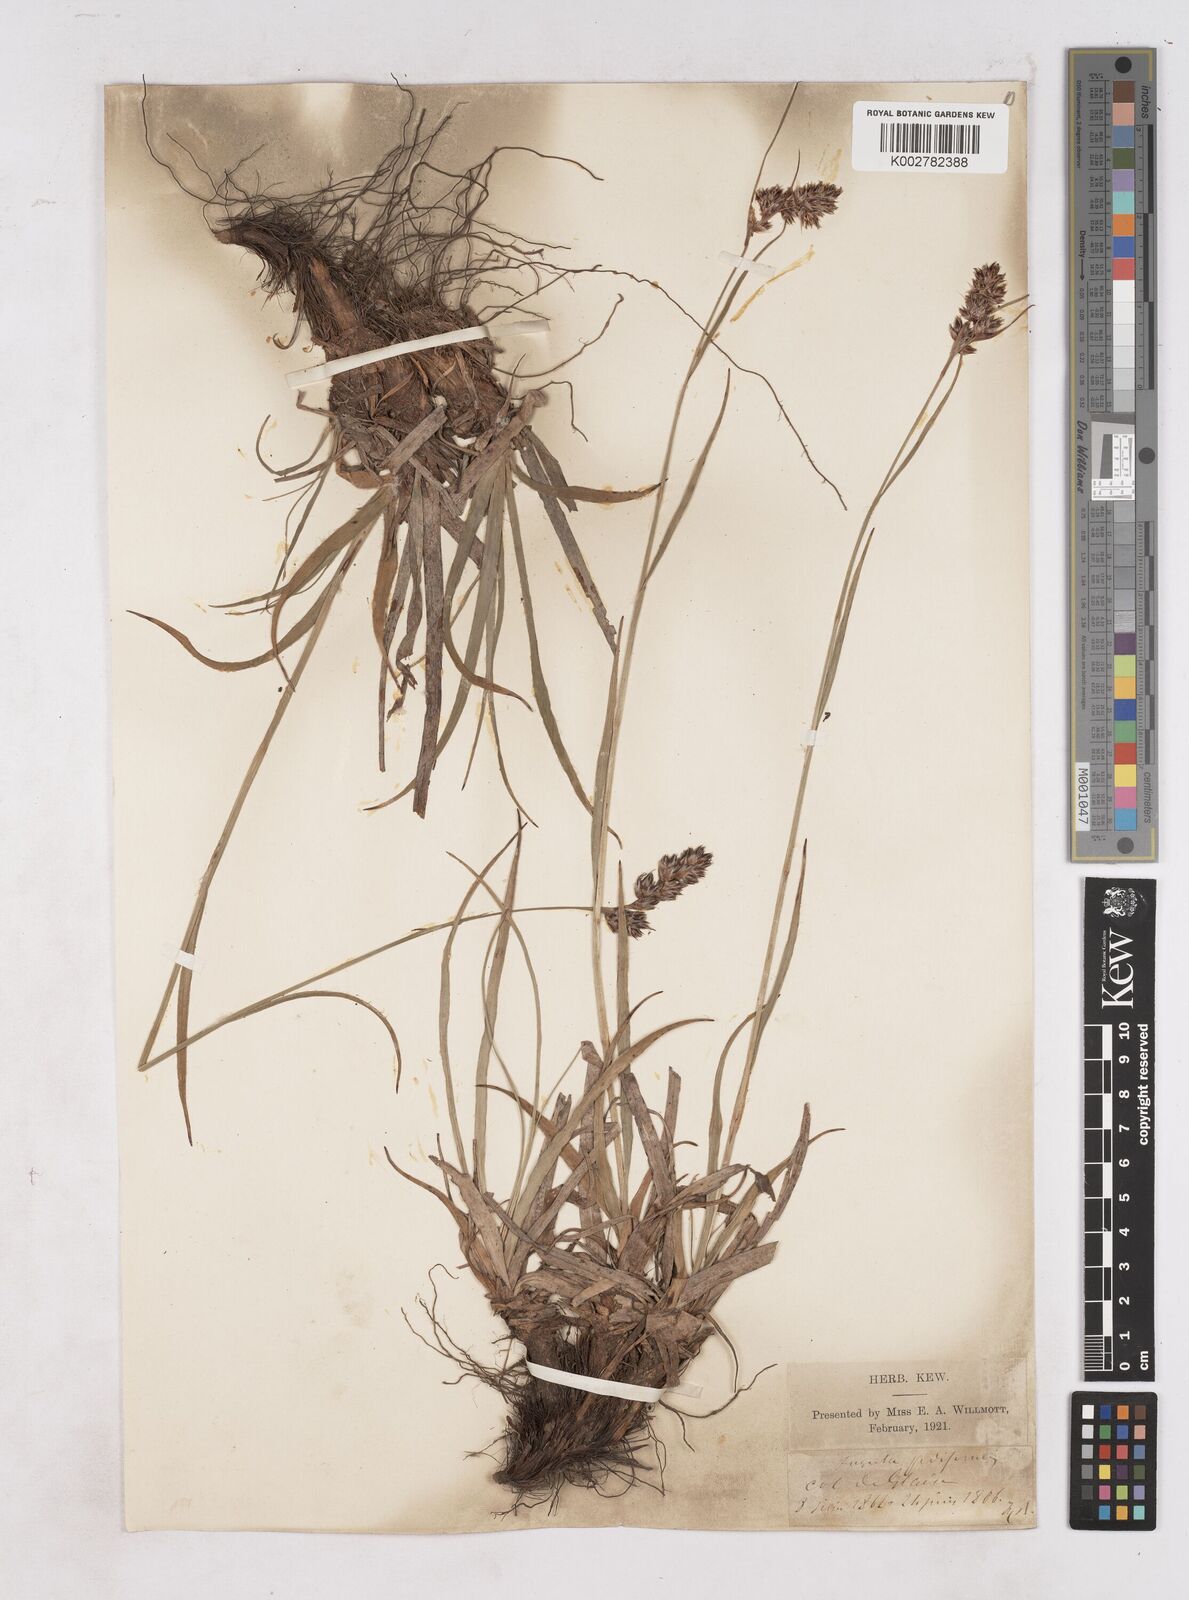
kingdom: Plantae
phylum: Tracheophyta
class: Liliopsida
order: Poales
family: Juncaceae
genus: Luzula
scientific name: Luzula pediformis
